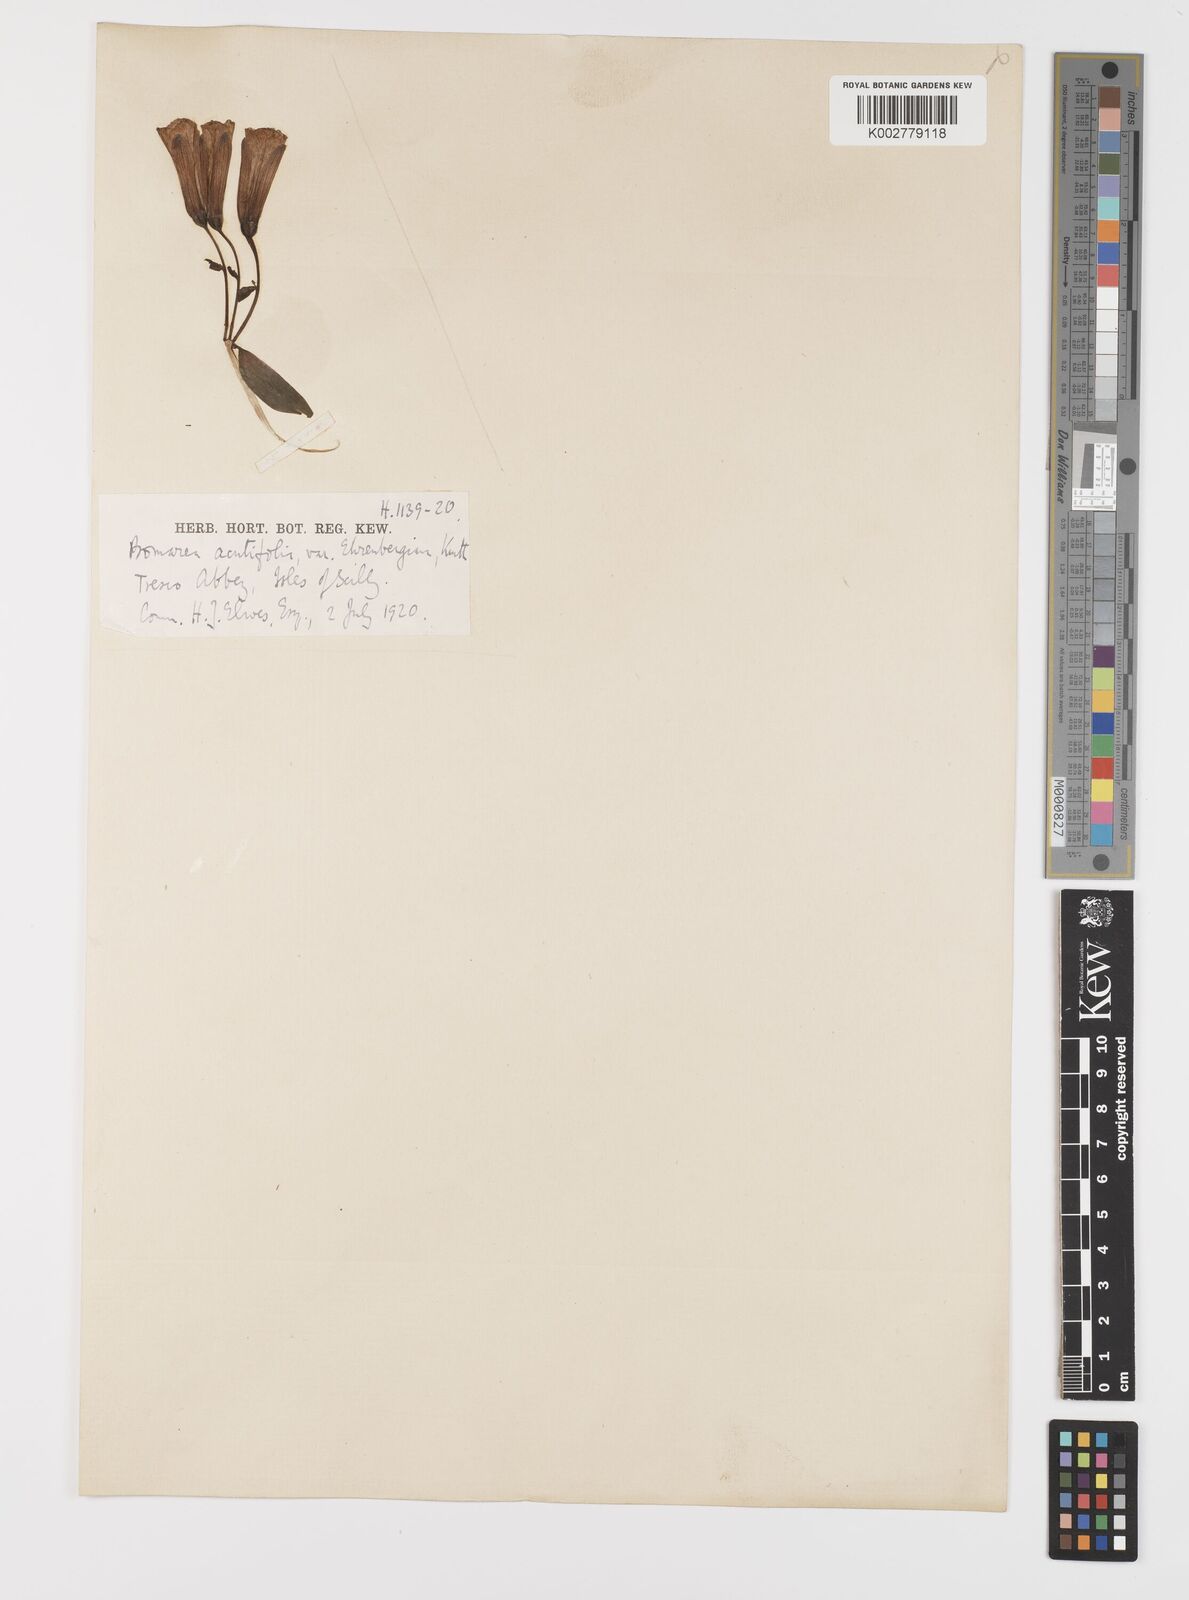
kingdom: Plantae
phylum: Tracheophyta
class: Liliopsida
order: Liliales
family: Alstroemeriaceae
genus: Bomarea
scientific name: Bomarea acutifolia
